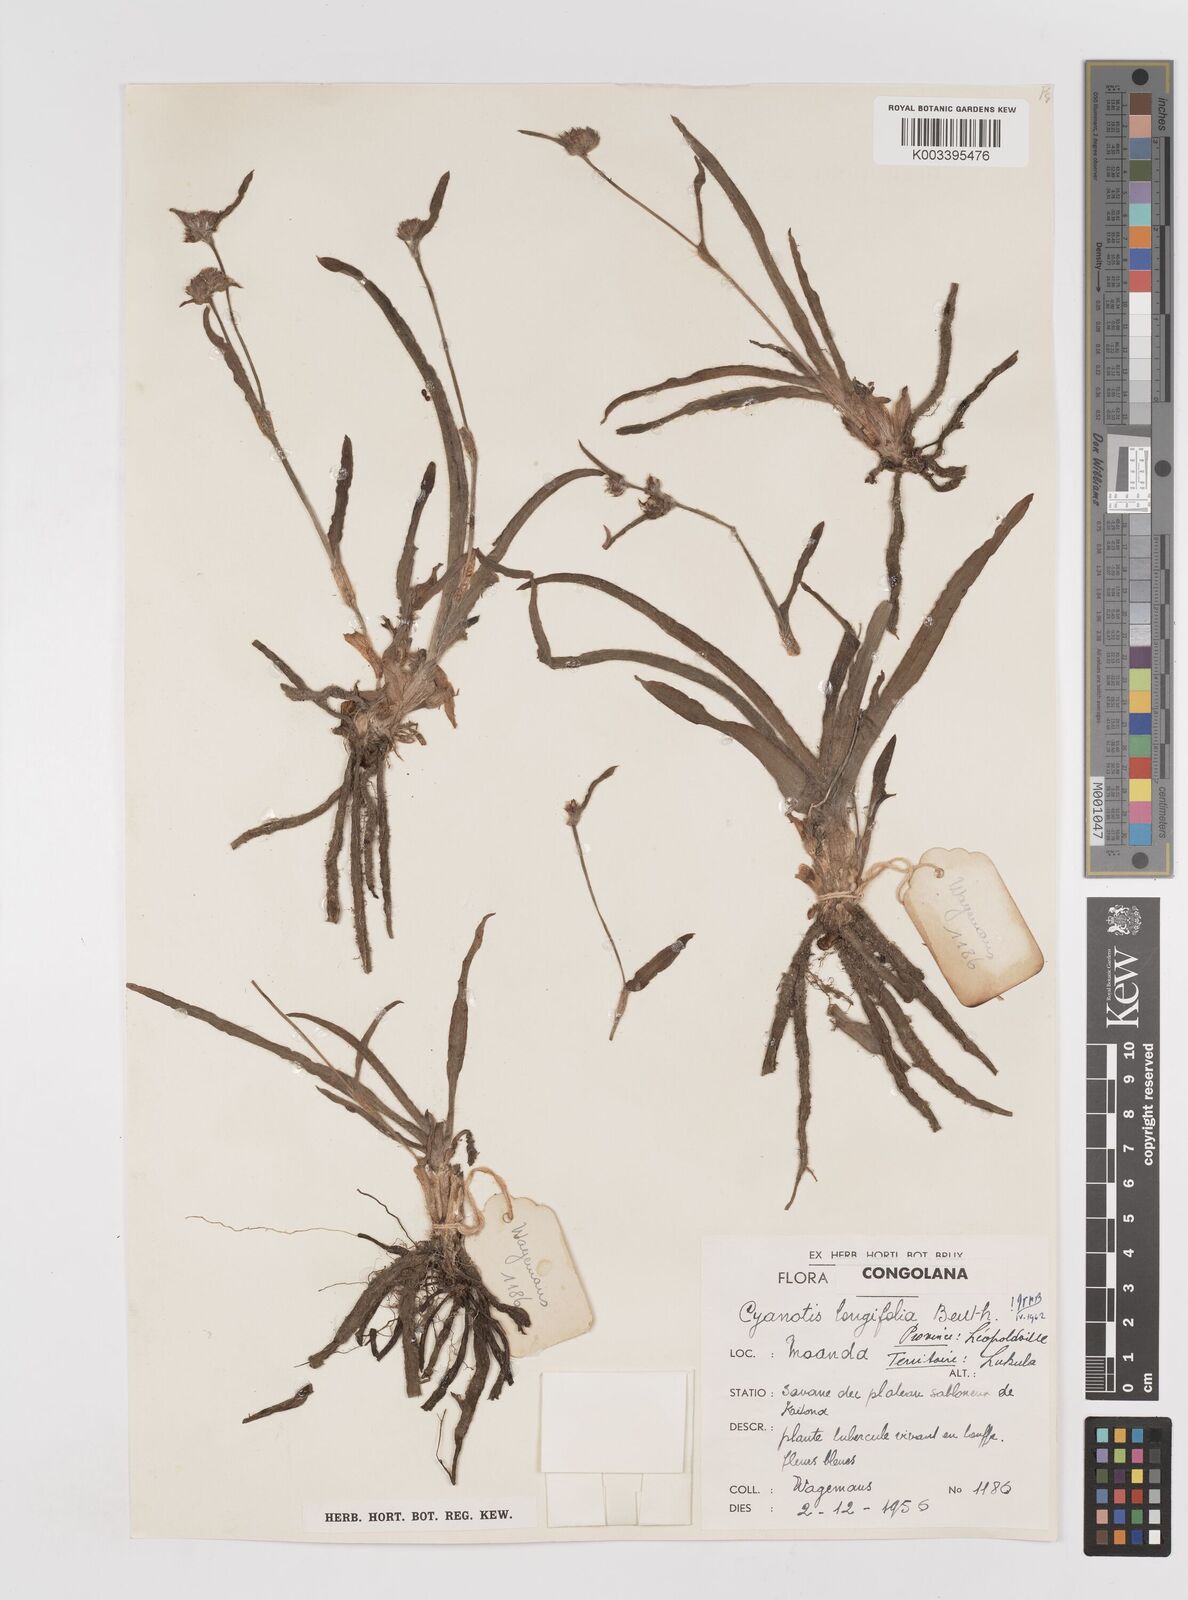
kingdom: Plantae
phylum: Tracheophyta
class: Liliopsida
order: Commelinales
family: Commelinaceae
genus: Cyanotis
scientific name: Cyanotis longifolia
